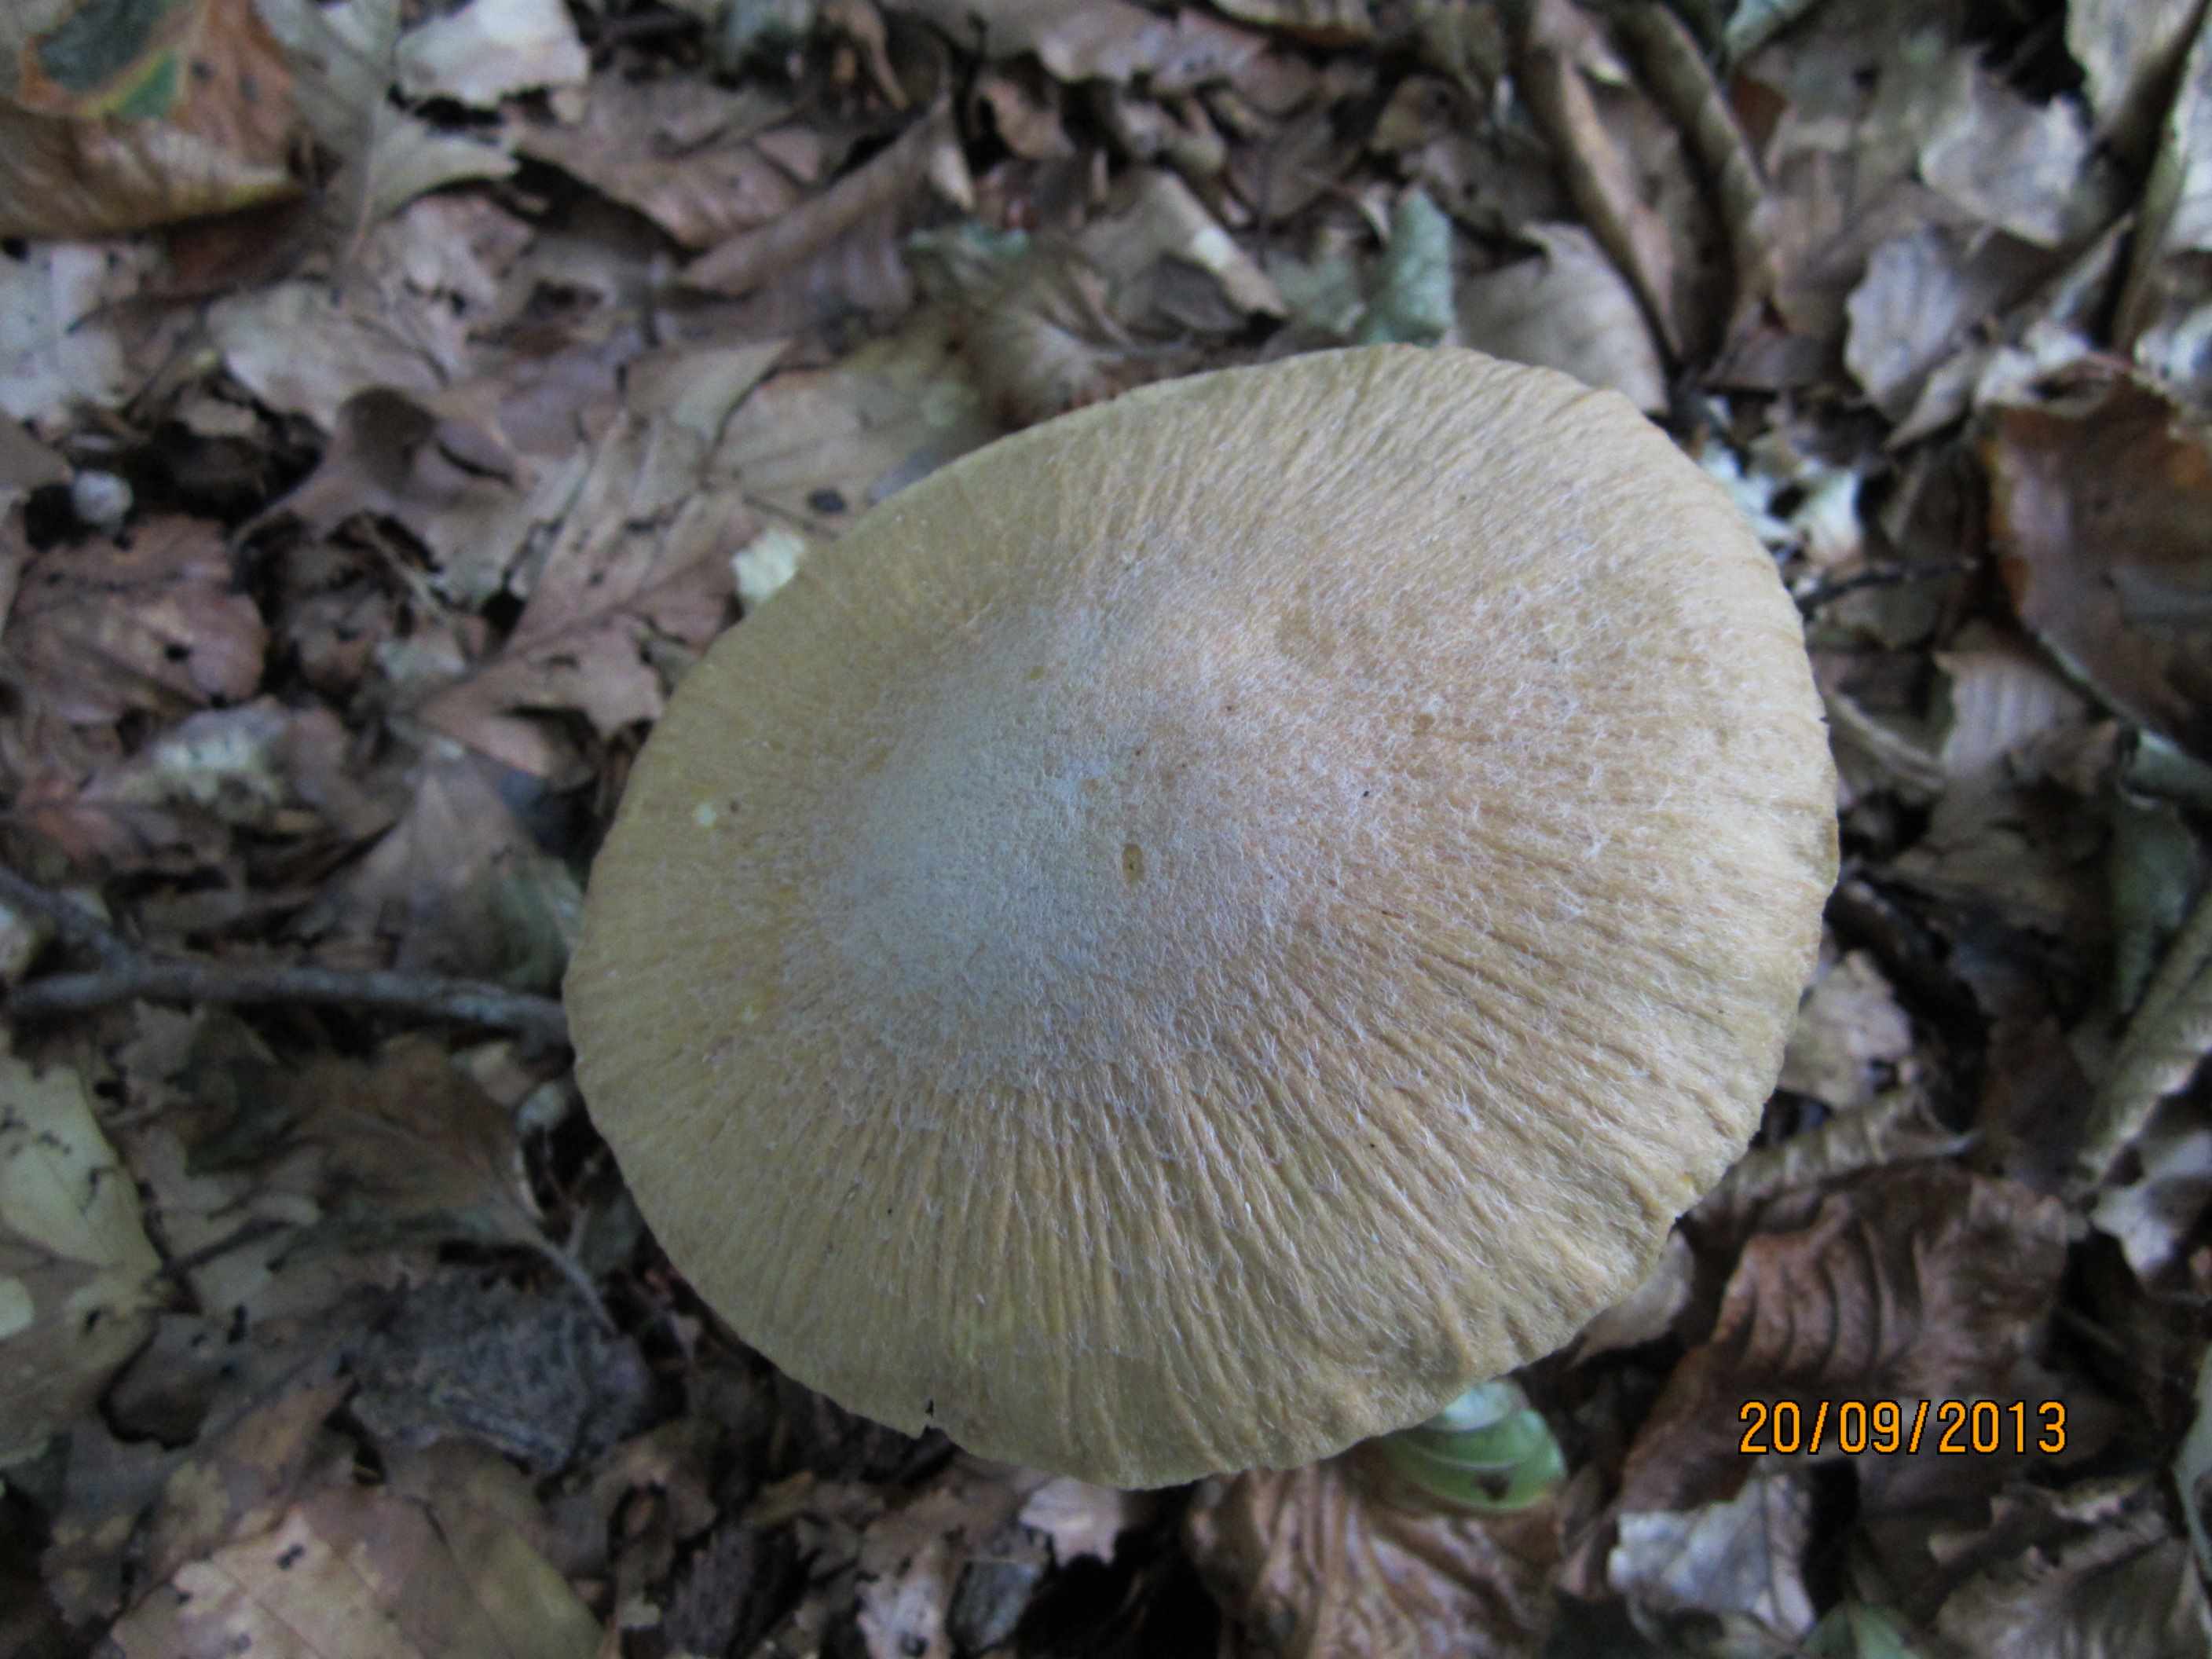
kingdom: Fungi
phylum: Basidiomycota
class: Agaricomycetes
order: Agaricales
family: Cortinariaceae
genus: Cortinarius
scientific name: Cortinarius caperatus
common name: klidhat
